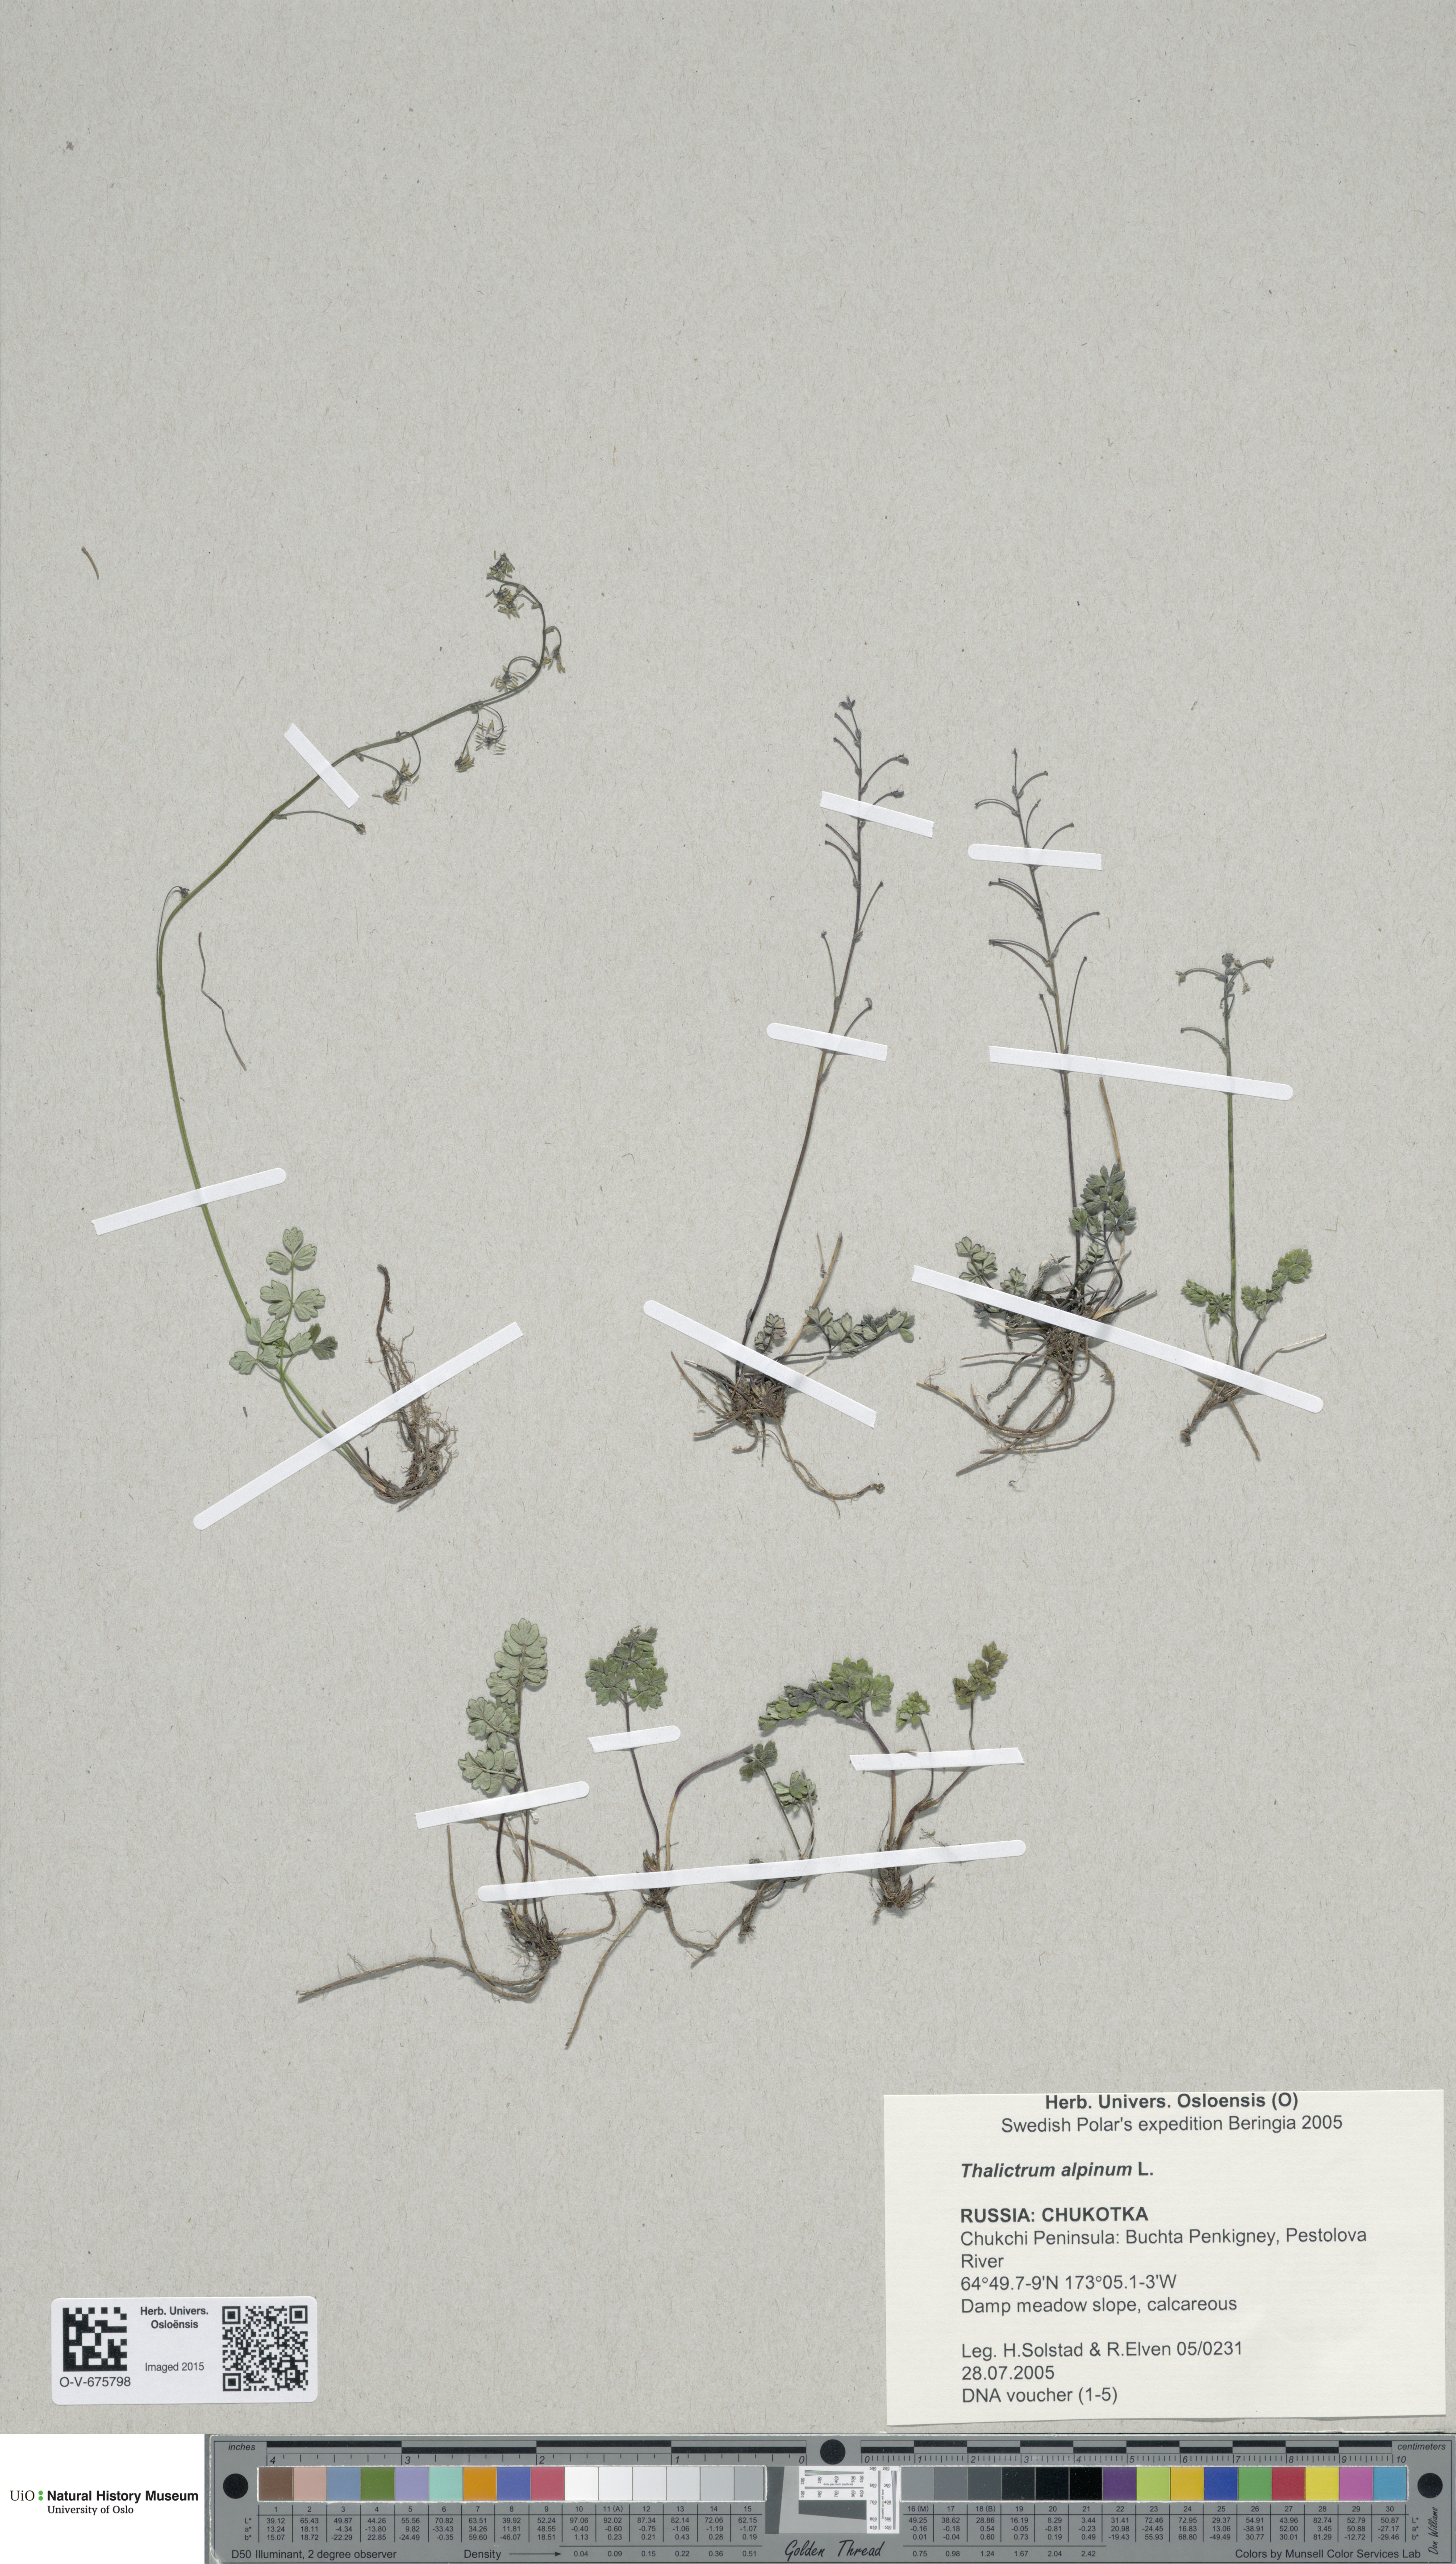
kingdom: Plantae
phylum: Tracheophyta
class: Magnoliopsida
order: Ranunculales
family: Ranunculaceae
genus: Thalictrum
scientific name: Thalictrum alpinum
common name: Alpine meadow-rue
